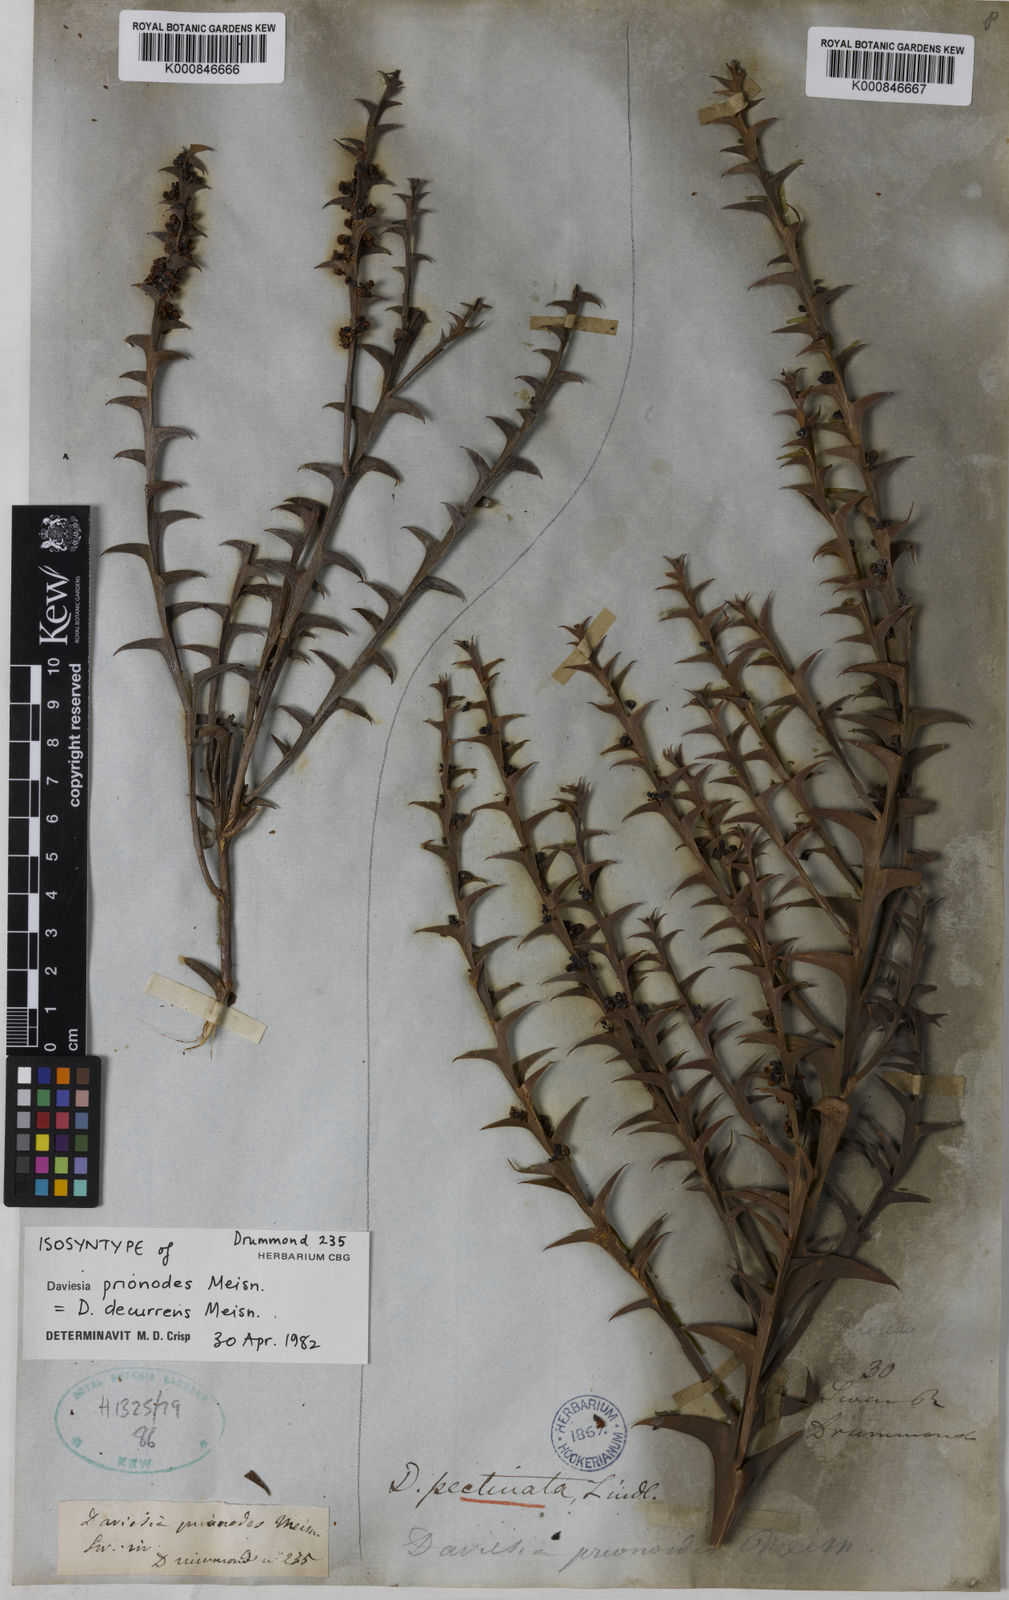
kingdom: Plantae
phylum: Tracheophyta
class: Magnoliopsida
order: Fabales
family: Fabaceae
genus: Daviesia
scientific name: Daviesia decurrens
